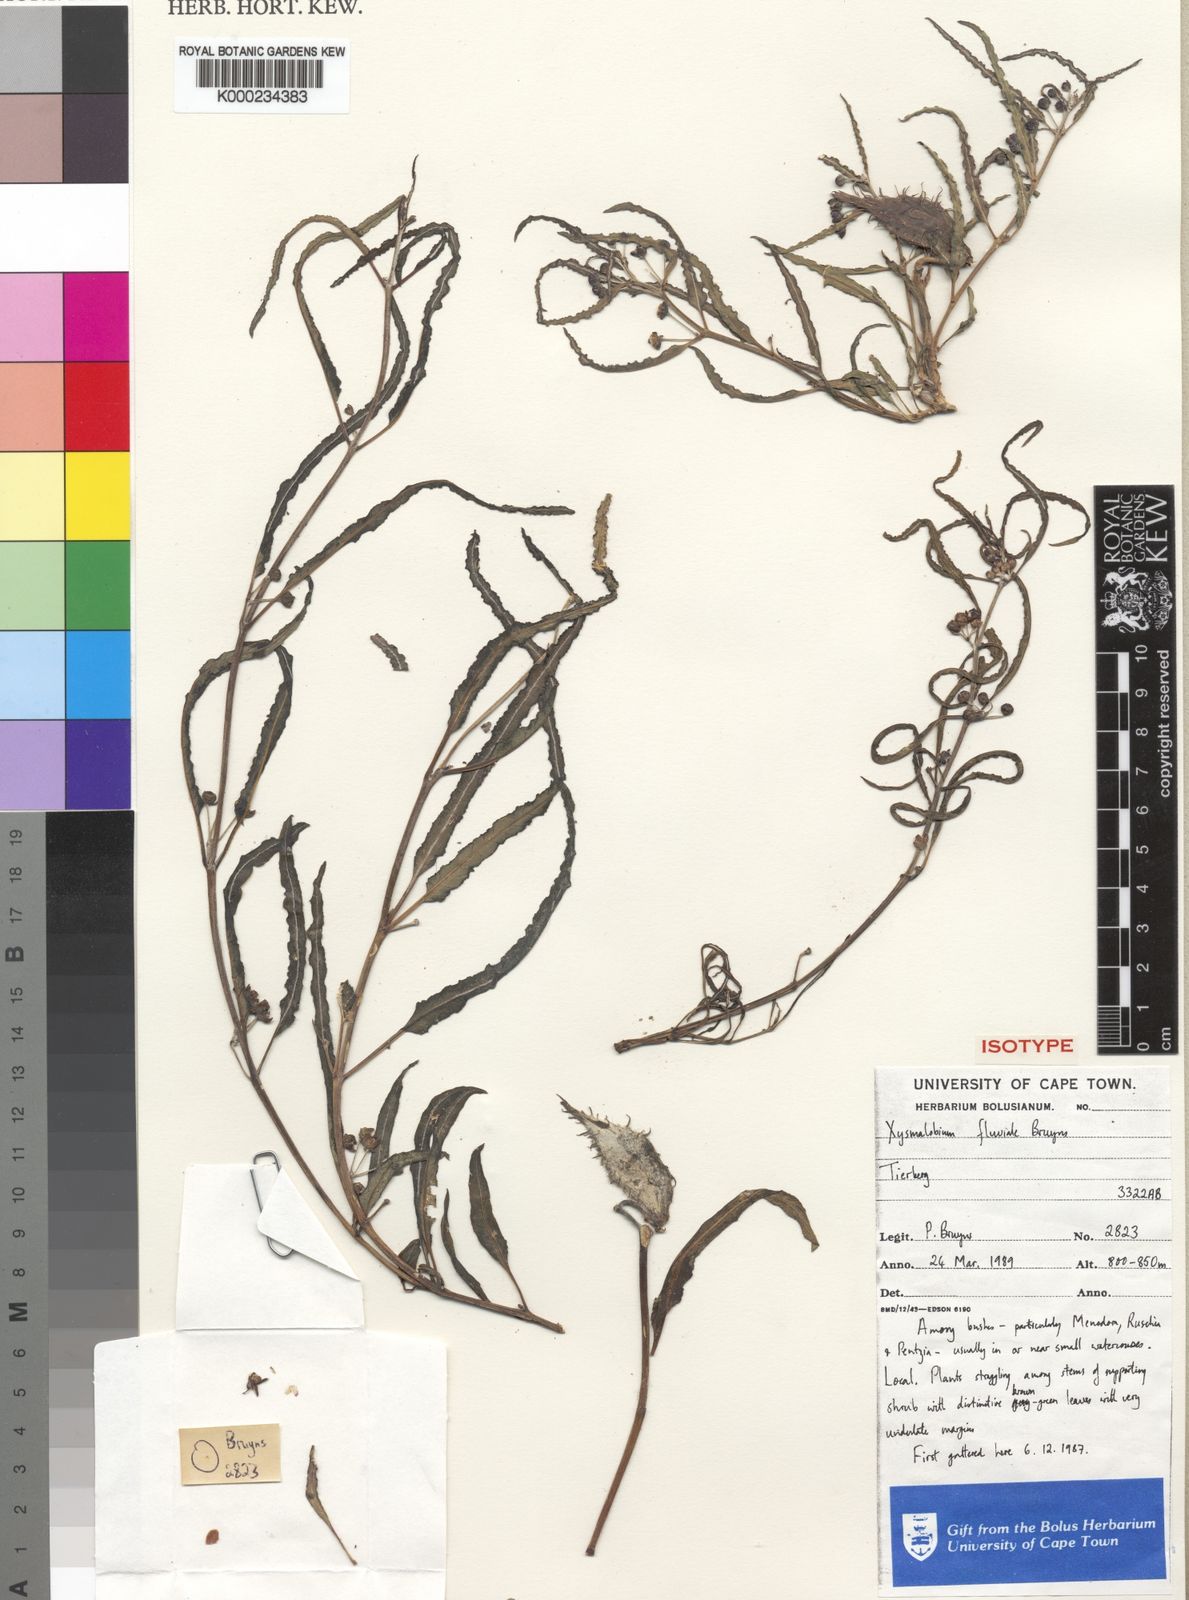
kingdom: Plantae
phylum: Tracheophyta
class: Magnoliopsida
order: Gentianales
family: Asclepiadaceae
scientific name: Asclepiadaceae
